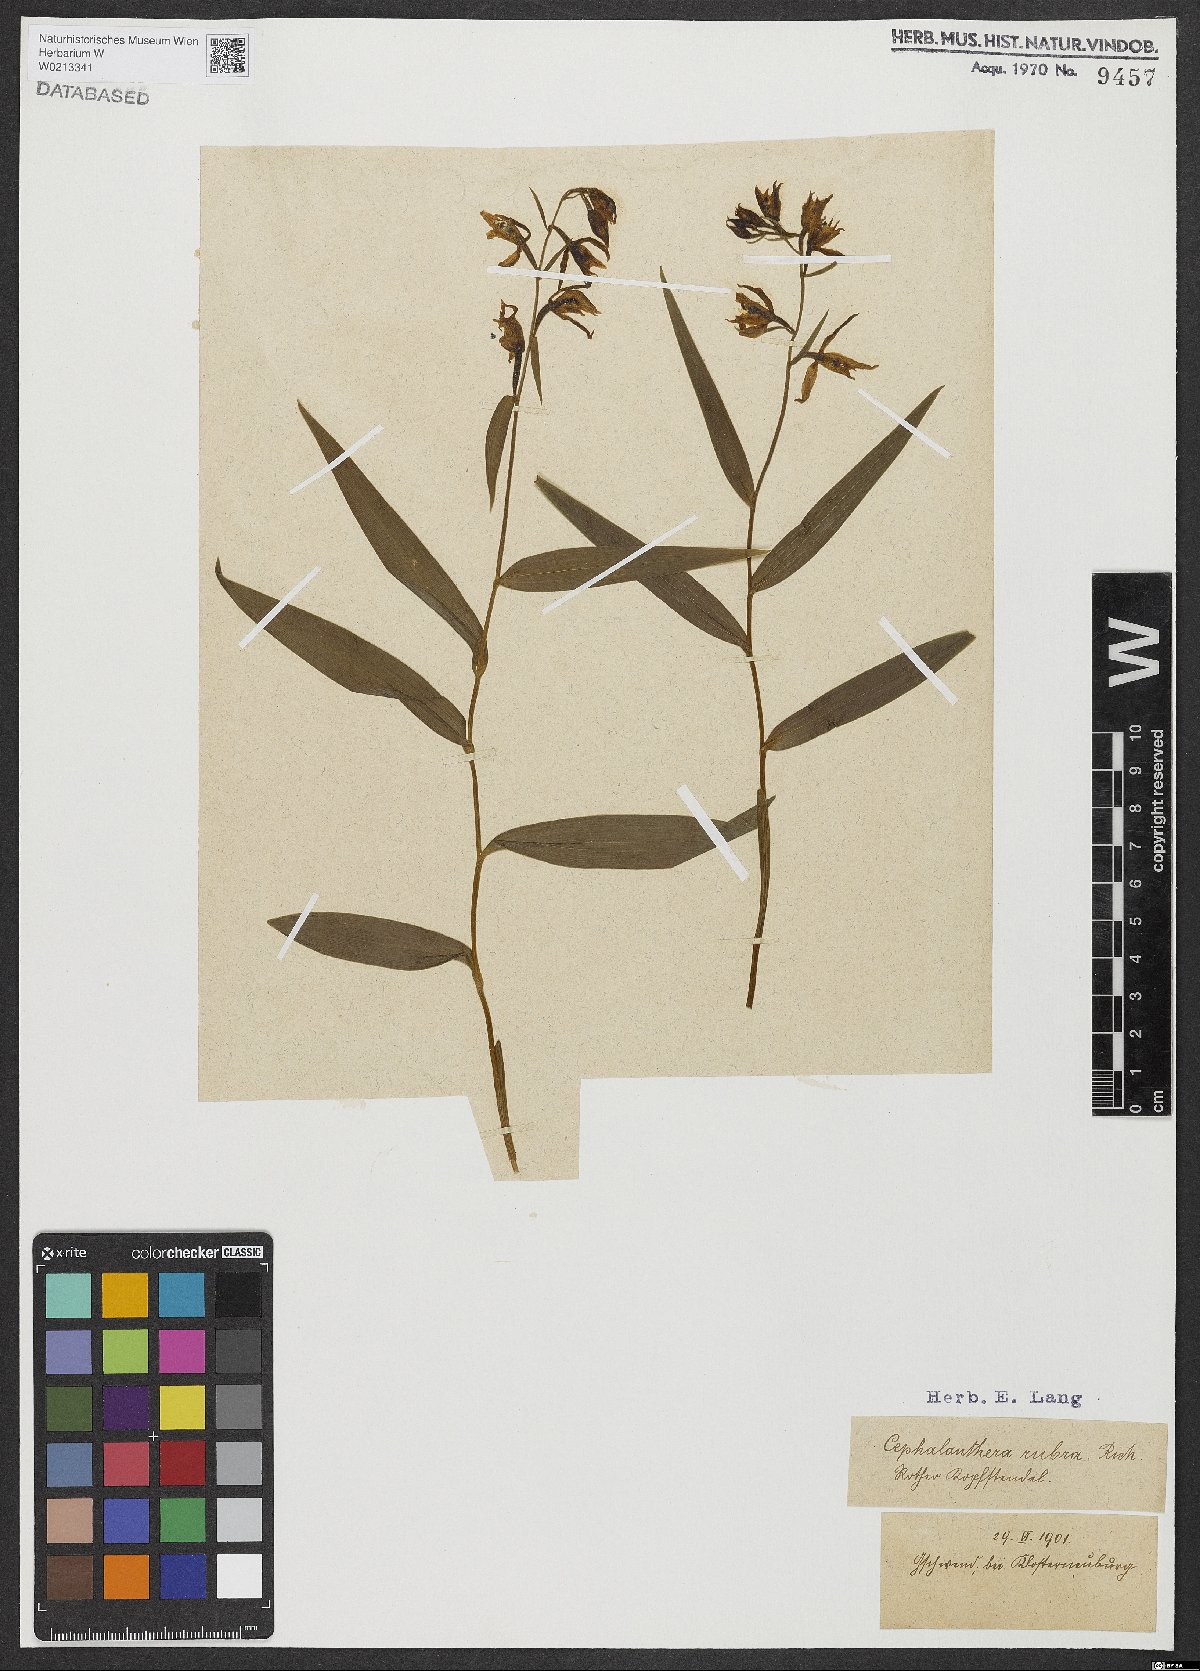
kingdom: Plantae
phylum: Tracheophyta
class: Liliopsida
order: Asparagales
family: Orchidaceae
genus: Cephalanthera
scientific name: Cephalanthera rubra
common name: Red helleborine
